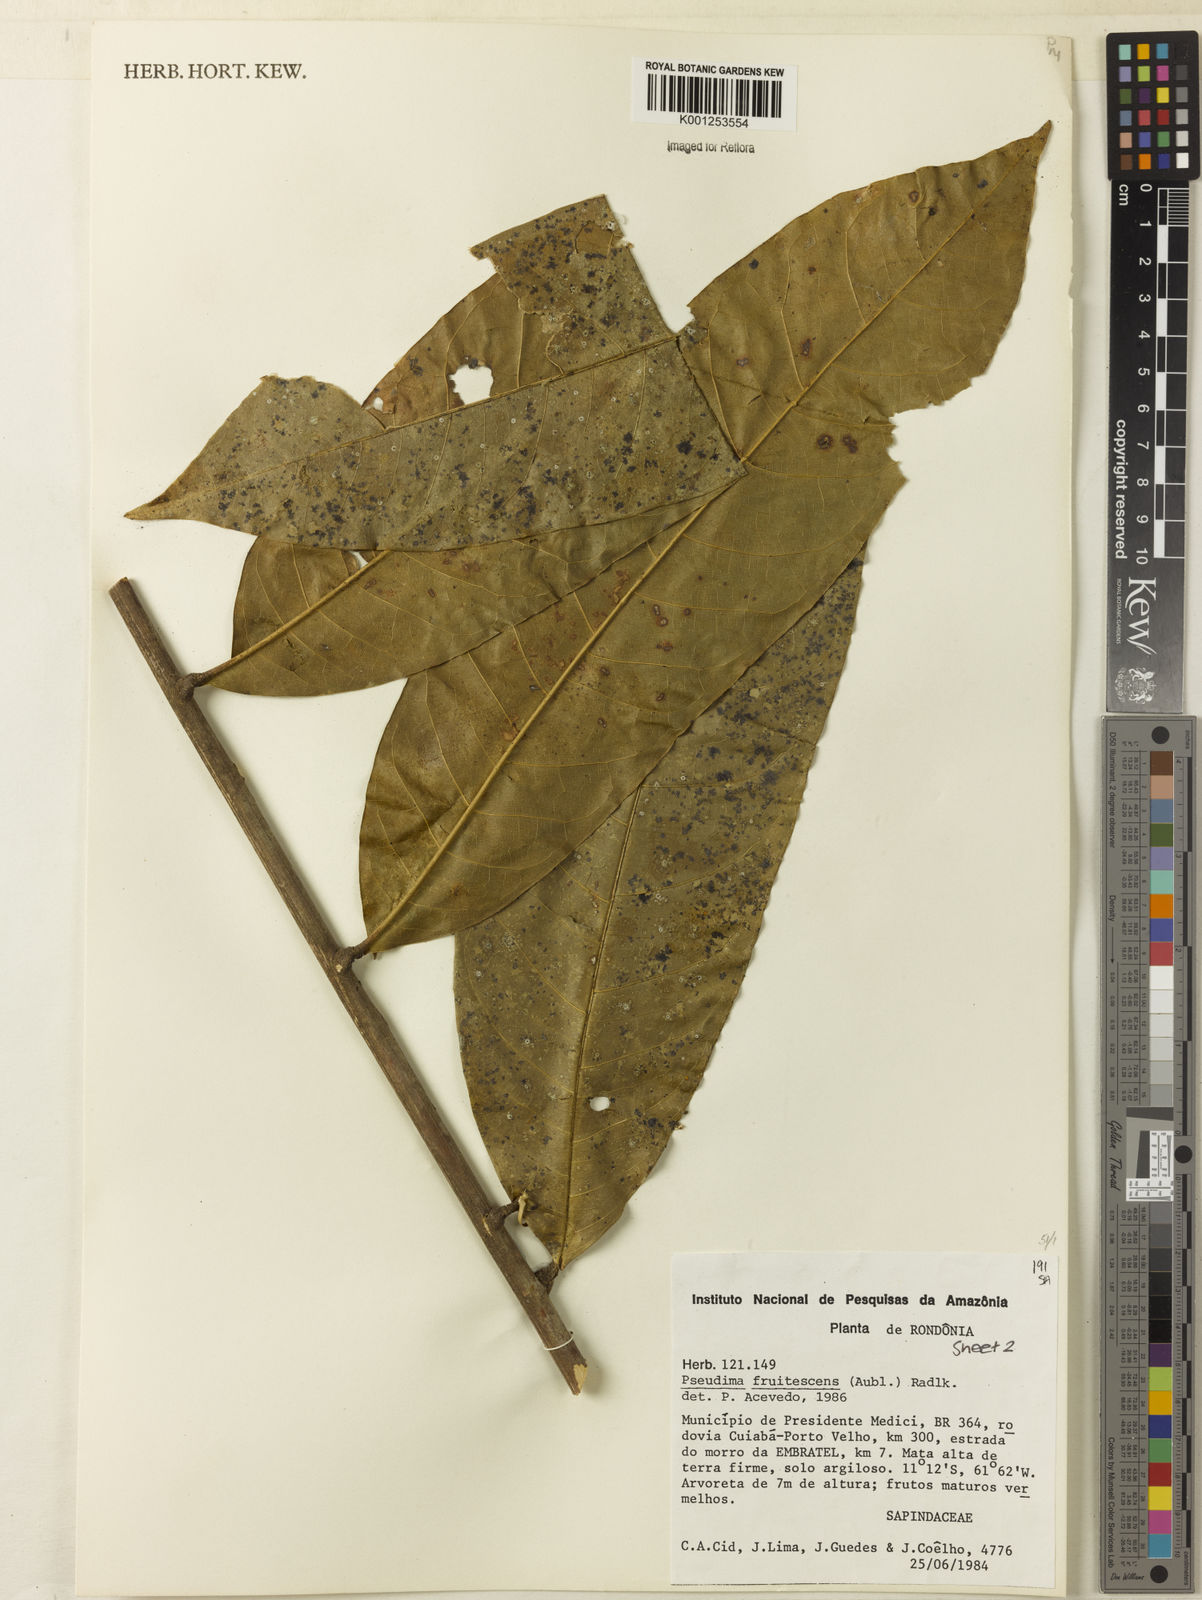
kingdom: Plantae
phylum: Tracheophyta
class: Magnoliopsida
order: Sapindales
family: Sapindaceae
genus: Pseudima
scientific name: Pseudima frutescens
